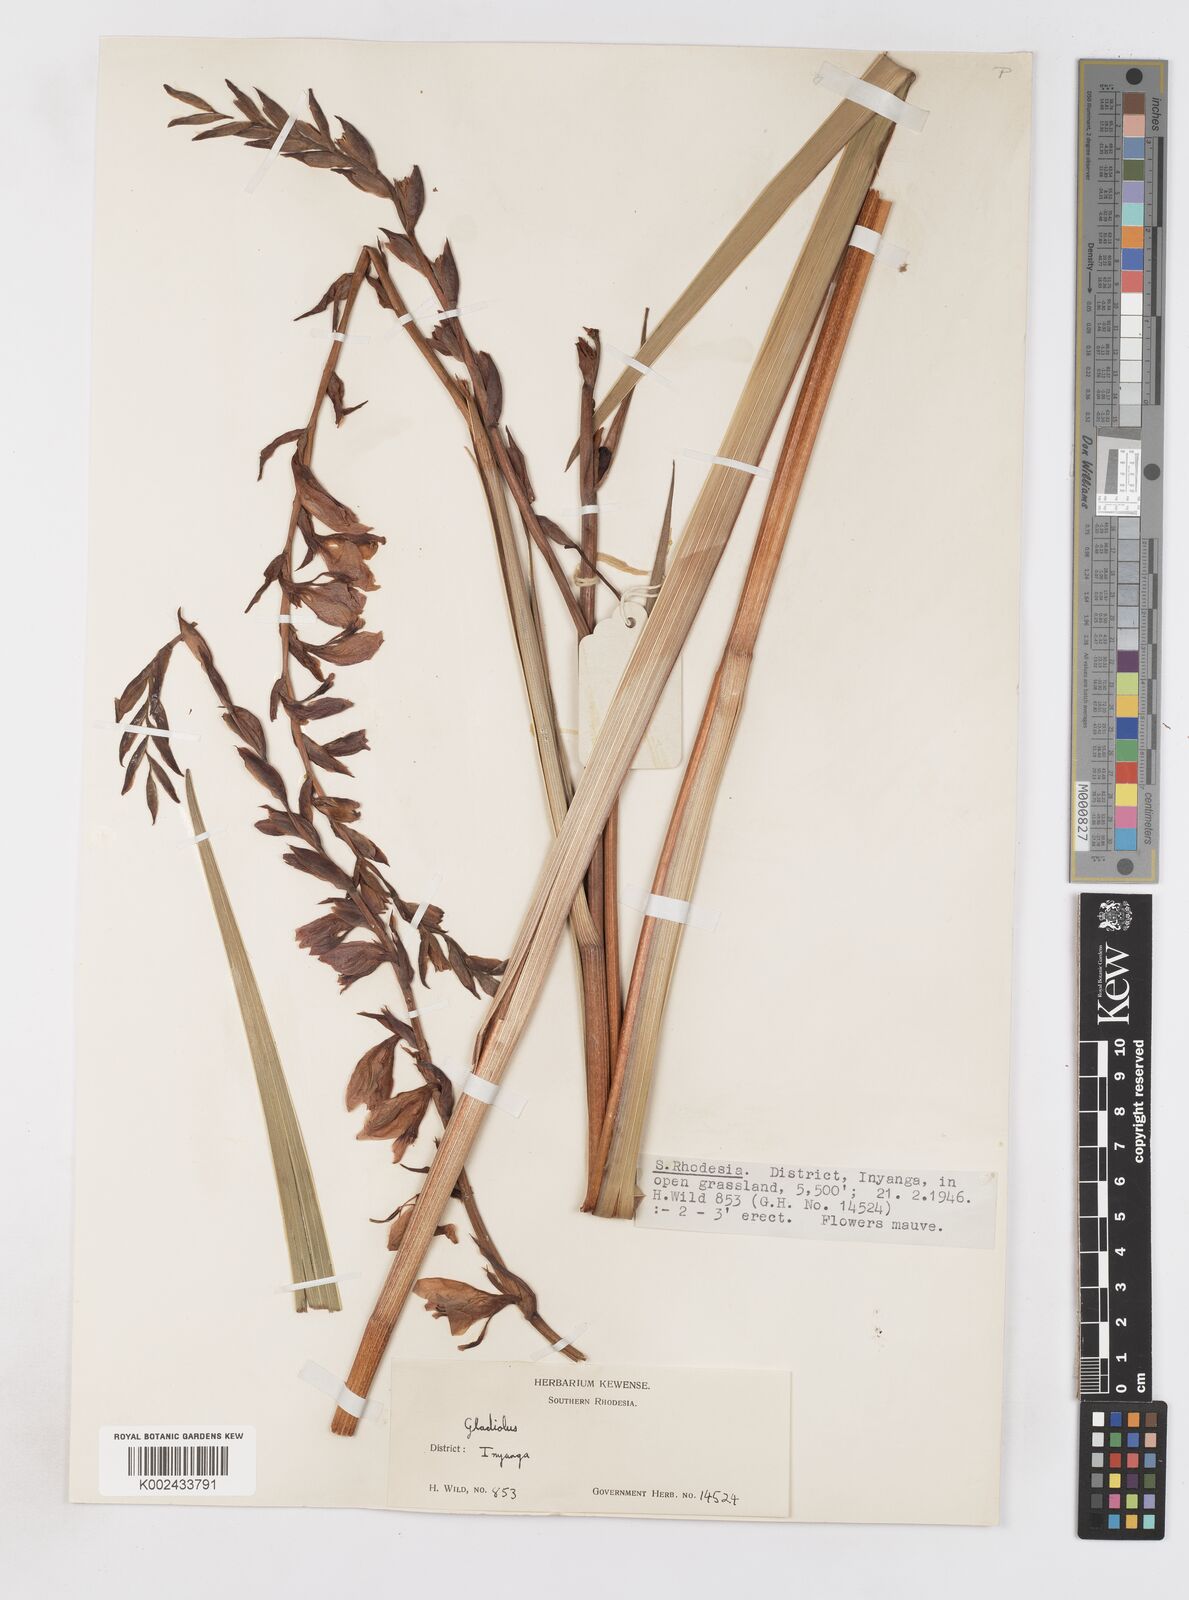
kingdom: Plantae
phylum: Tracheophyta
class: Liliopsida
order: Asparagales
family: Iridaceae
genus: Gladiolus
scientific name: Gladiolus crassifolius
